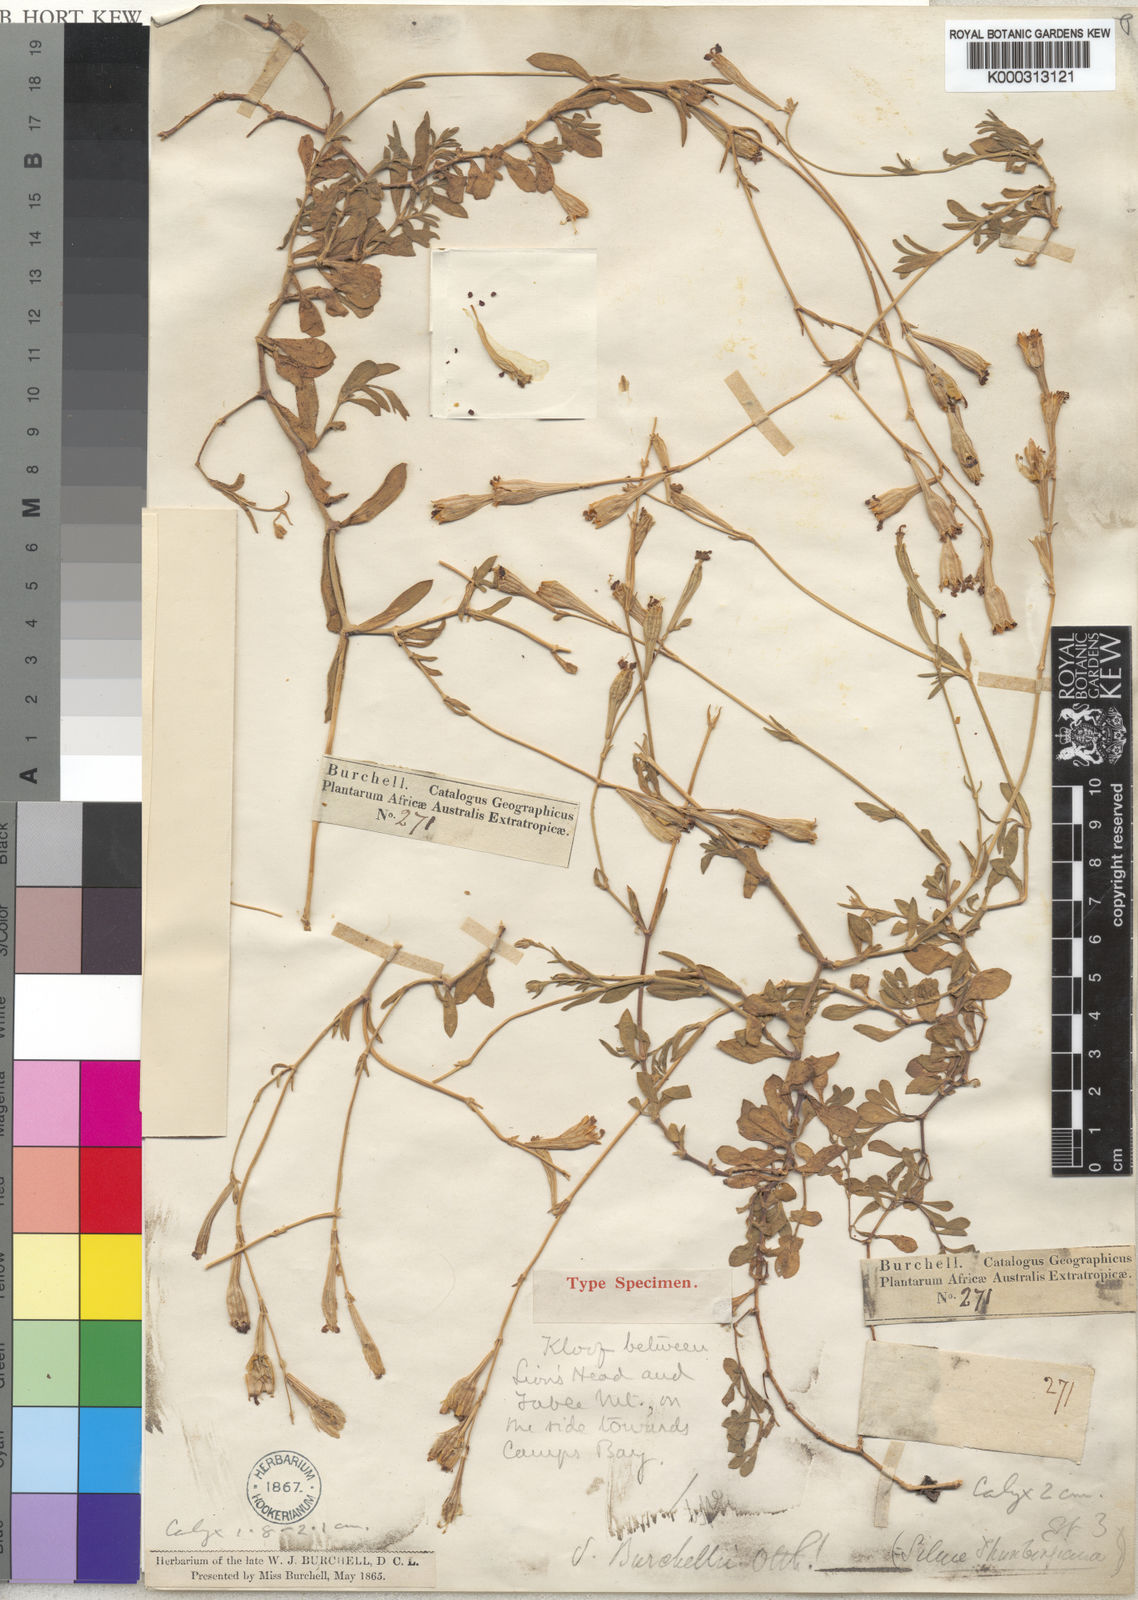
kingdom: Plantae
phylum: Tracheophyta
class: Magnoliopsida
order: Caryophyllales
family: Caryophyllaceae
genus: Silene
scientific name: Silene burchellii
